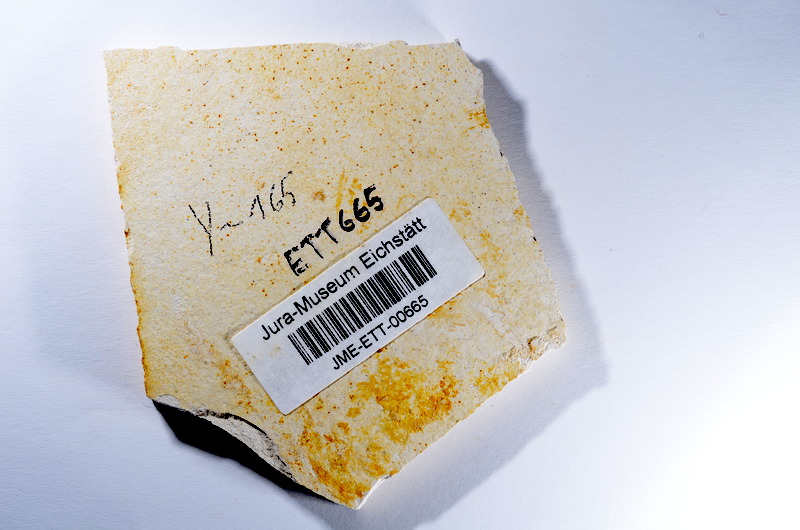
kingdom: Animalia
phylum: Chordata
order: Salmoniformes
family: Orthogonikleithridae
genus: Orthogonikleithrus
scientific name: Orthogonikleithrus hoelli
